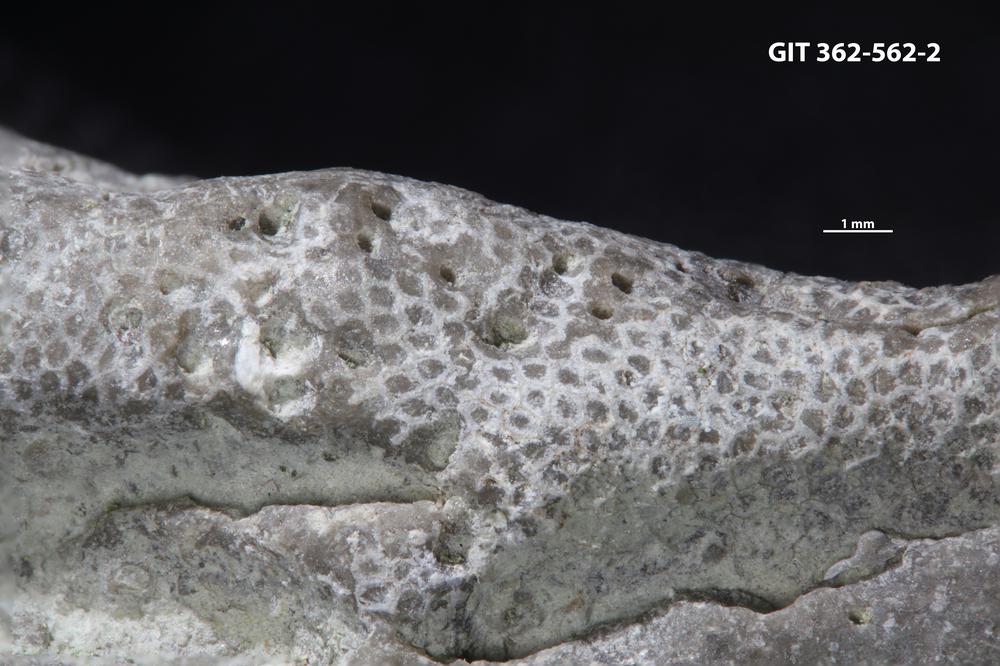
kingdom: Animalia
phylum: Bryozoa
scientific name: Bryozoa
